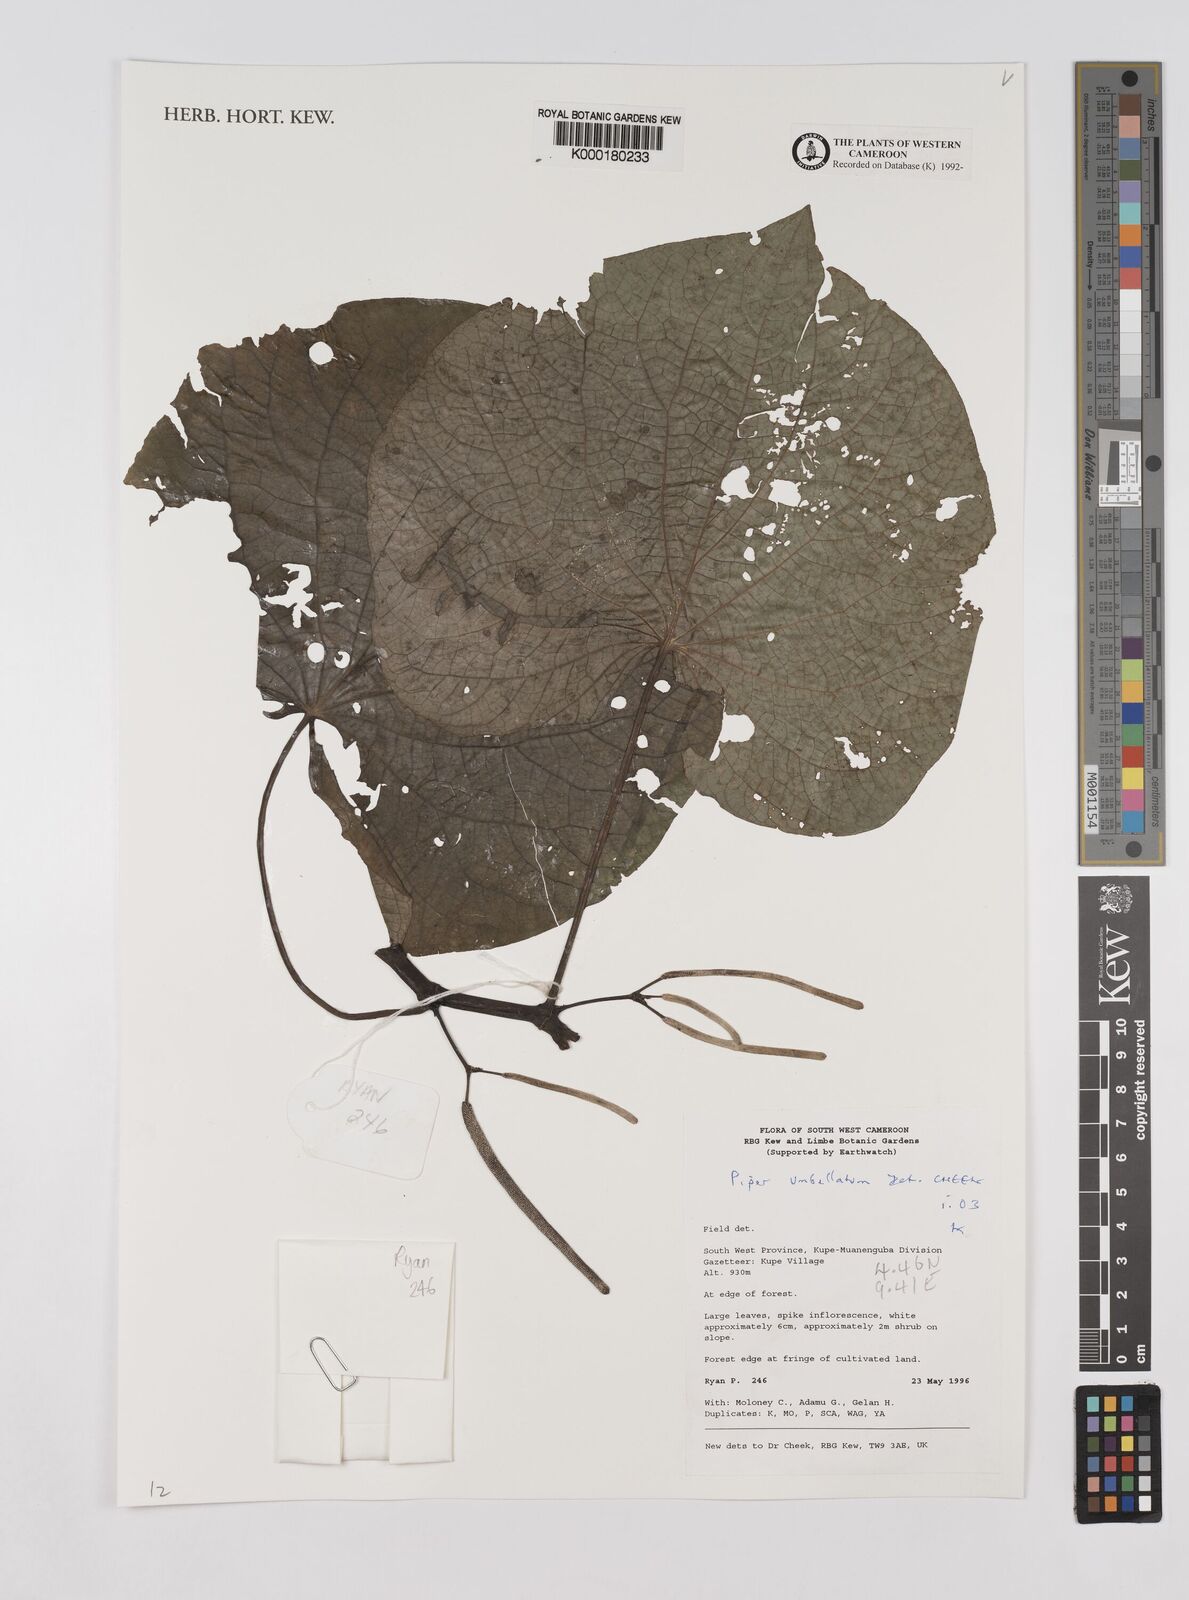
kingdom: Plantae
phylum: Tracheophyta
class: Magnoliopsida
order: Piperales
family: Piperaceae
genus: Piper
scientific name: Piper umbellatum
